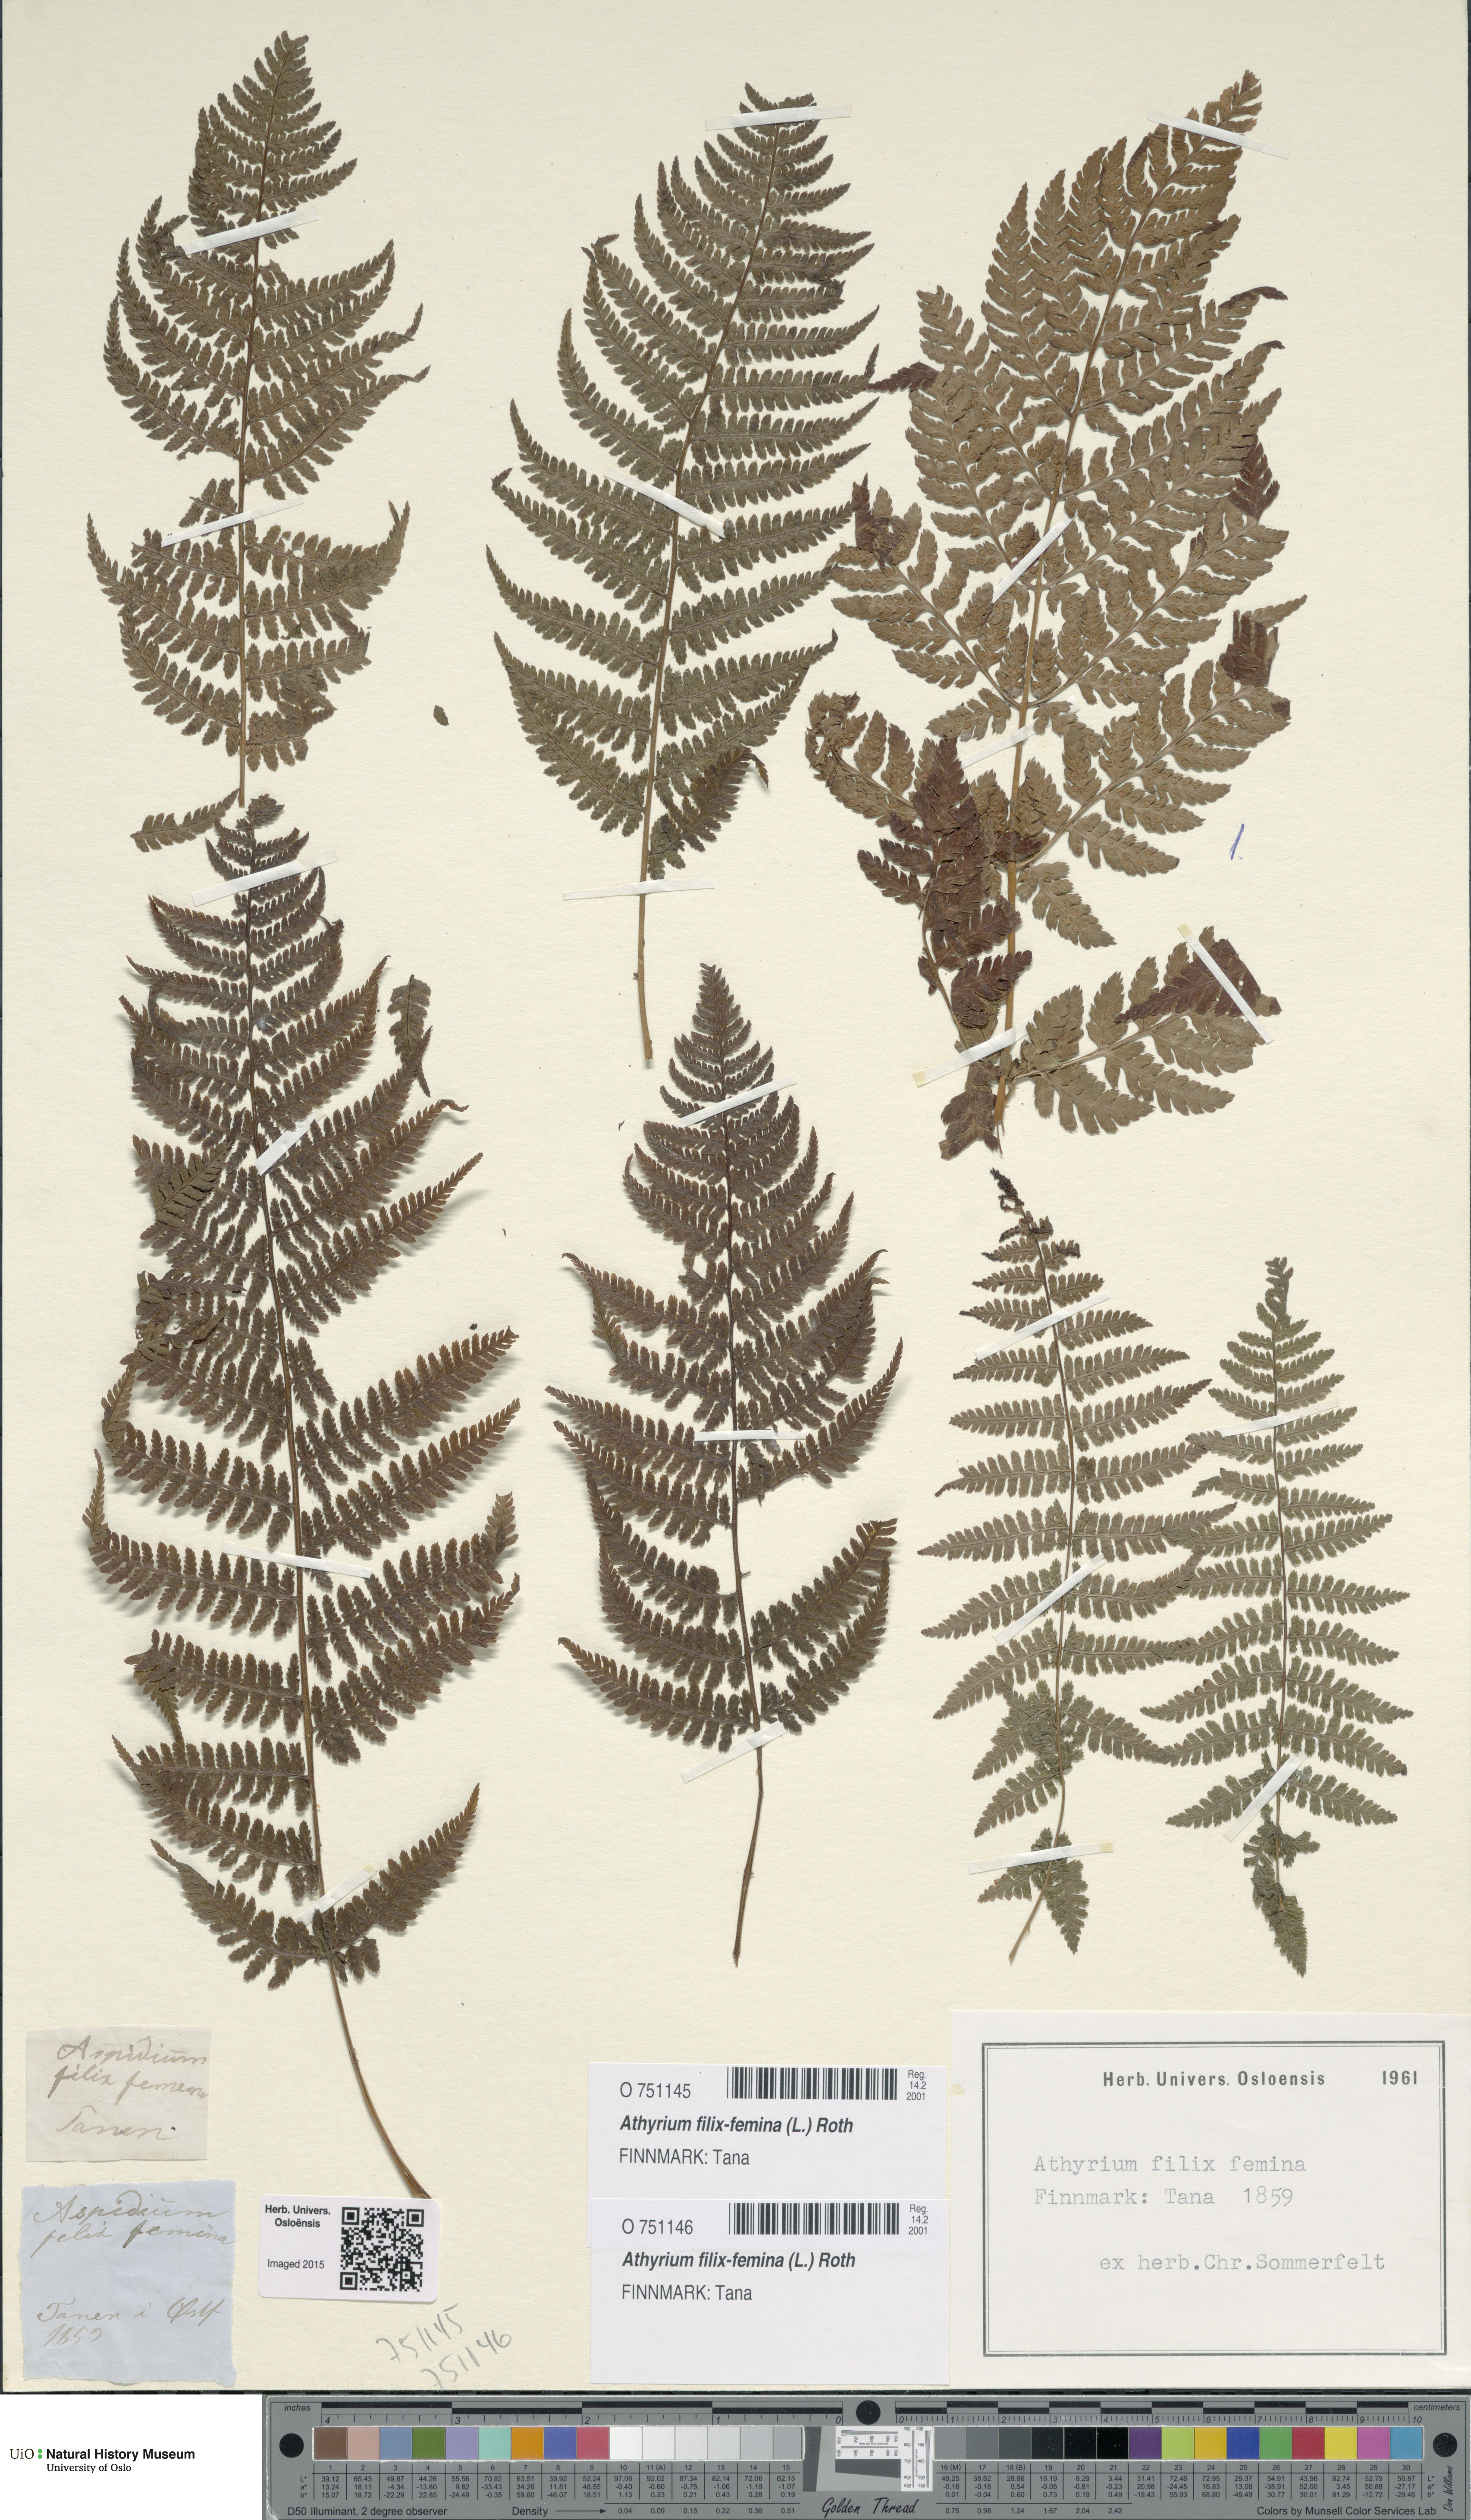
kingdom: Plantae
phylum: Tracheophyta
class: Polypodiopsida
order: Polypodiales
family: Athyriaceae
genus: Athyrium
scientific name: Athyrium filix-femina
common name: Lady fern
